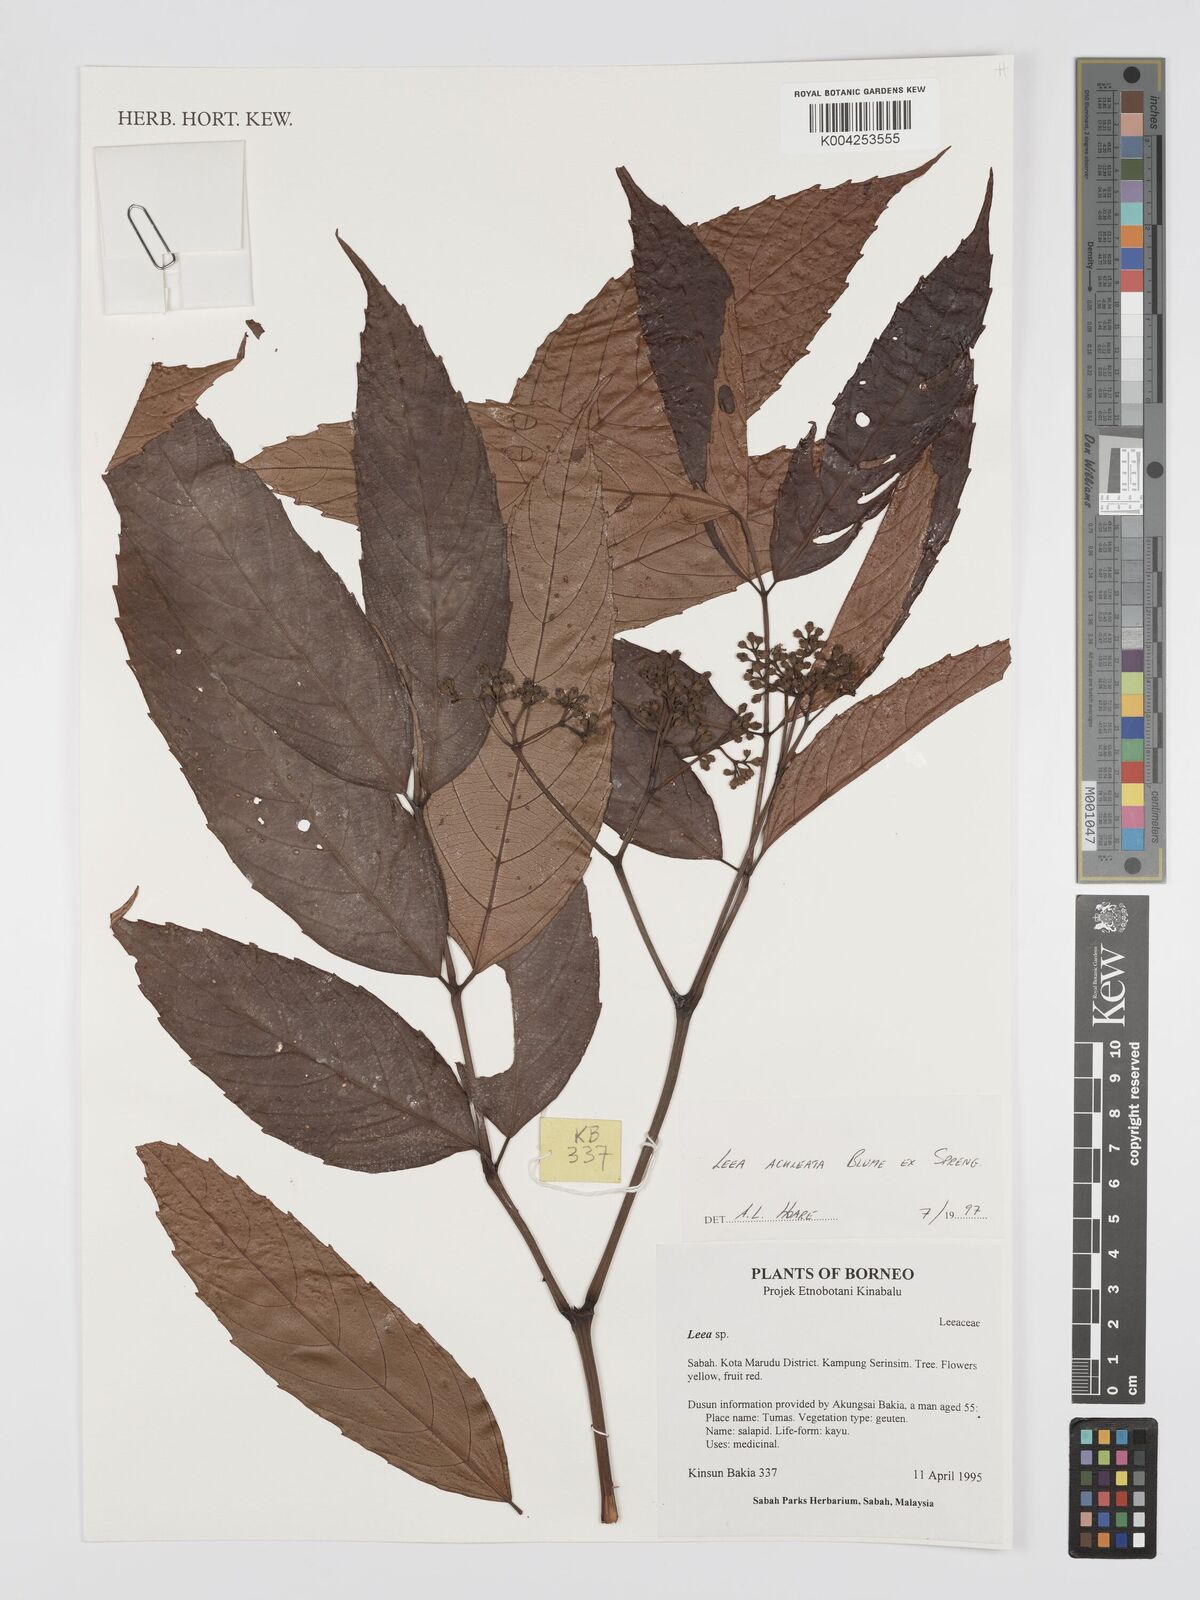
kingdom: Plantae
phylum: Tracheophyta
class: Magnoliopsida
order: Vitales
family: Vitaceae
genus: Leea
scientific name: Leea aculeata
